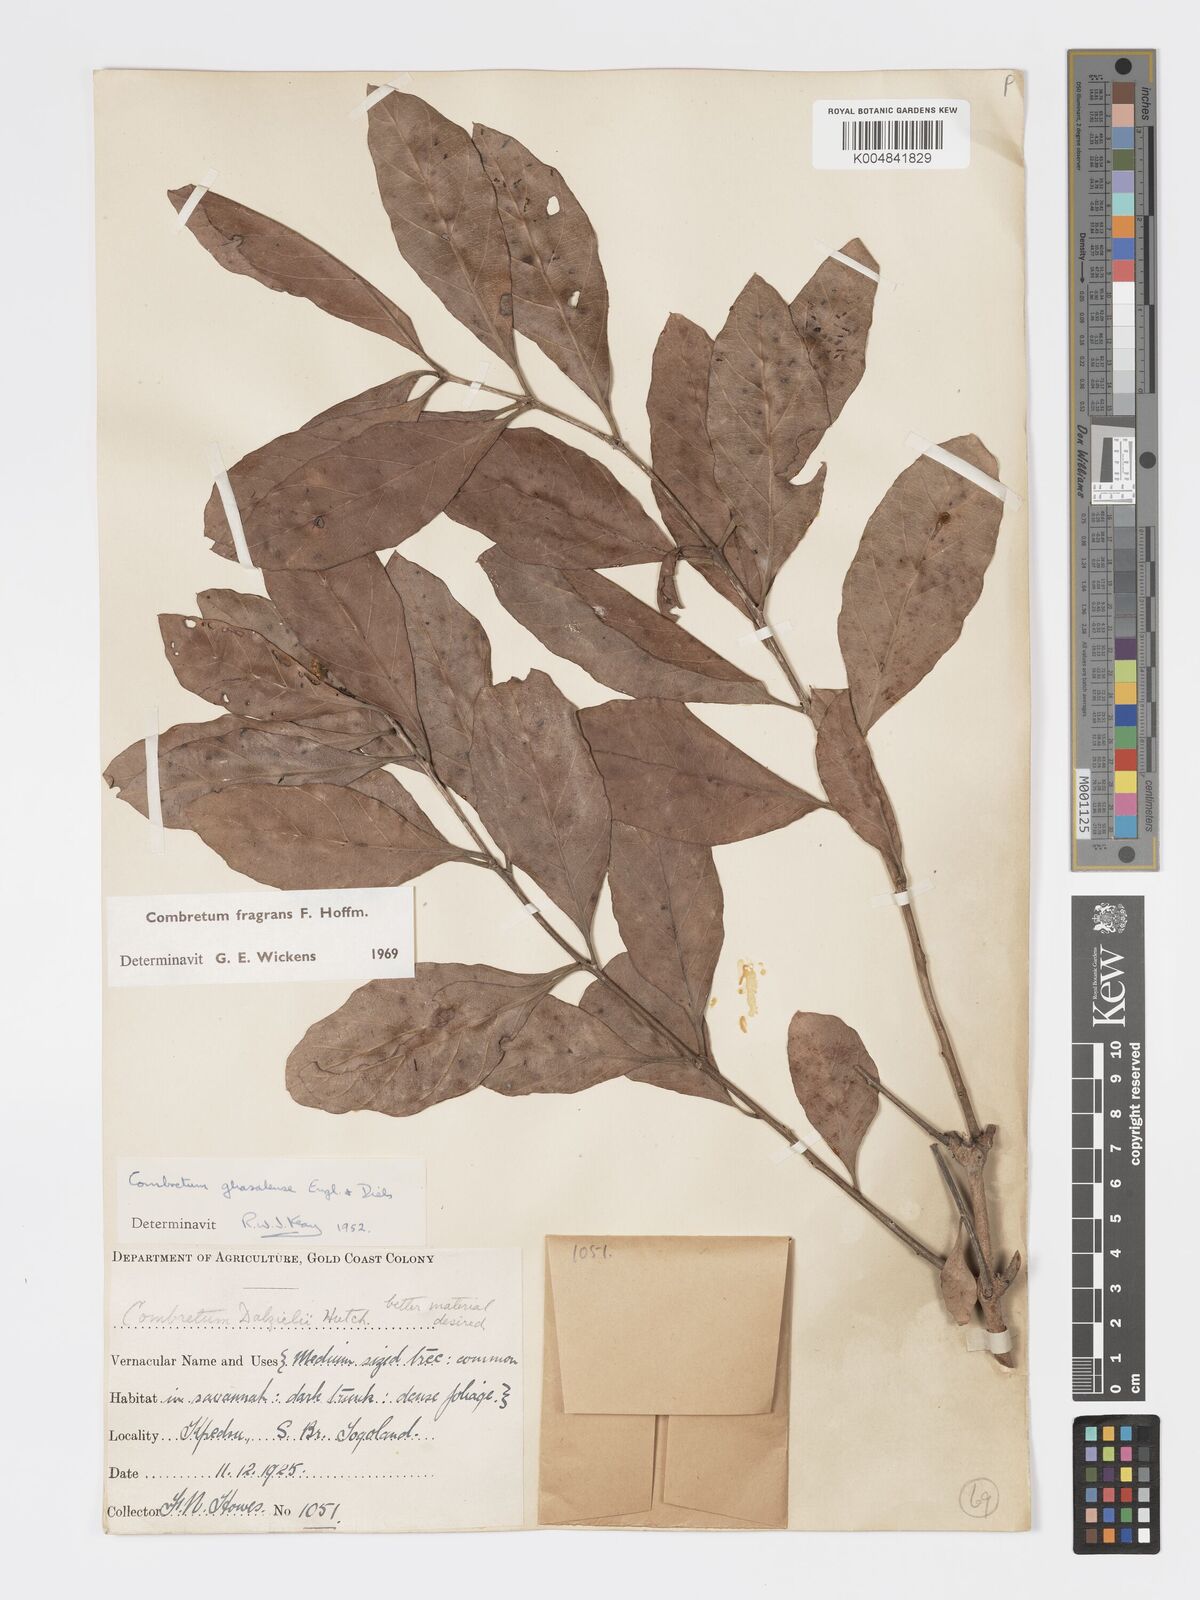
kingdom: Plantae
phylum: Tracheophyta
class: Magnoliopsida
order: Myrtales
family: Combretaceae
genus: Combretum
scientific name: Combretum adenogonium
